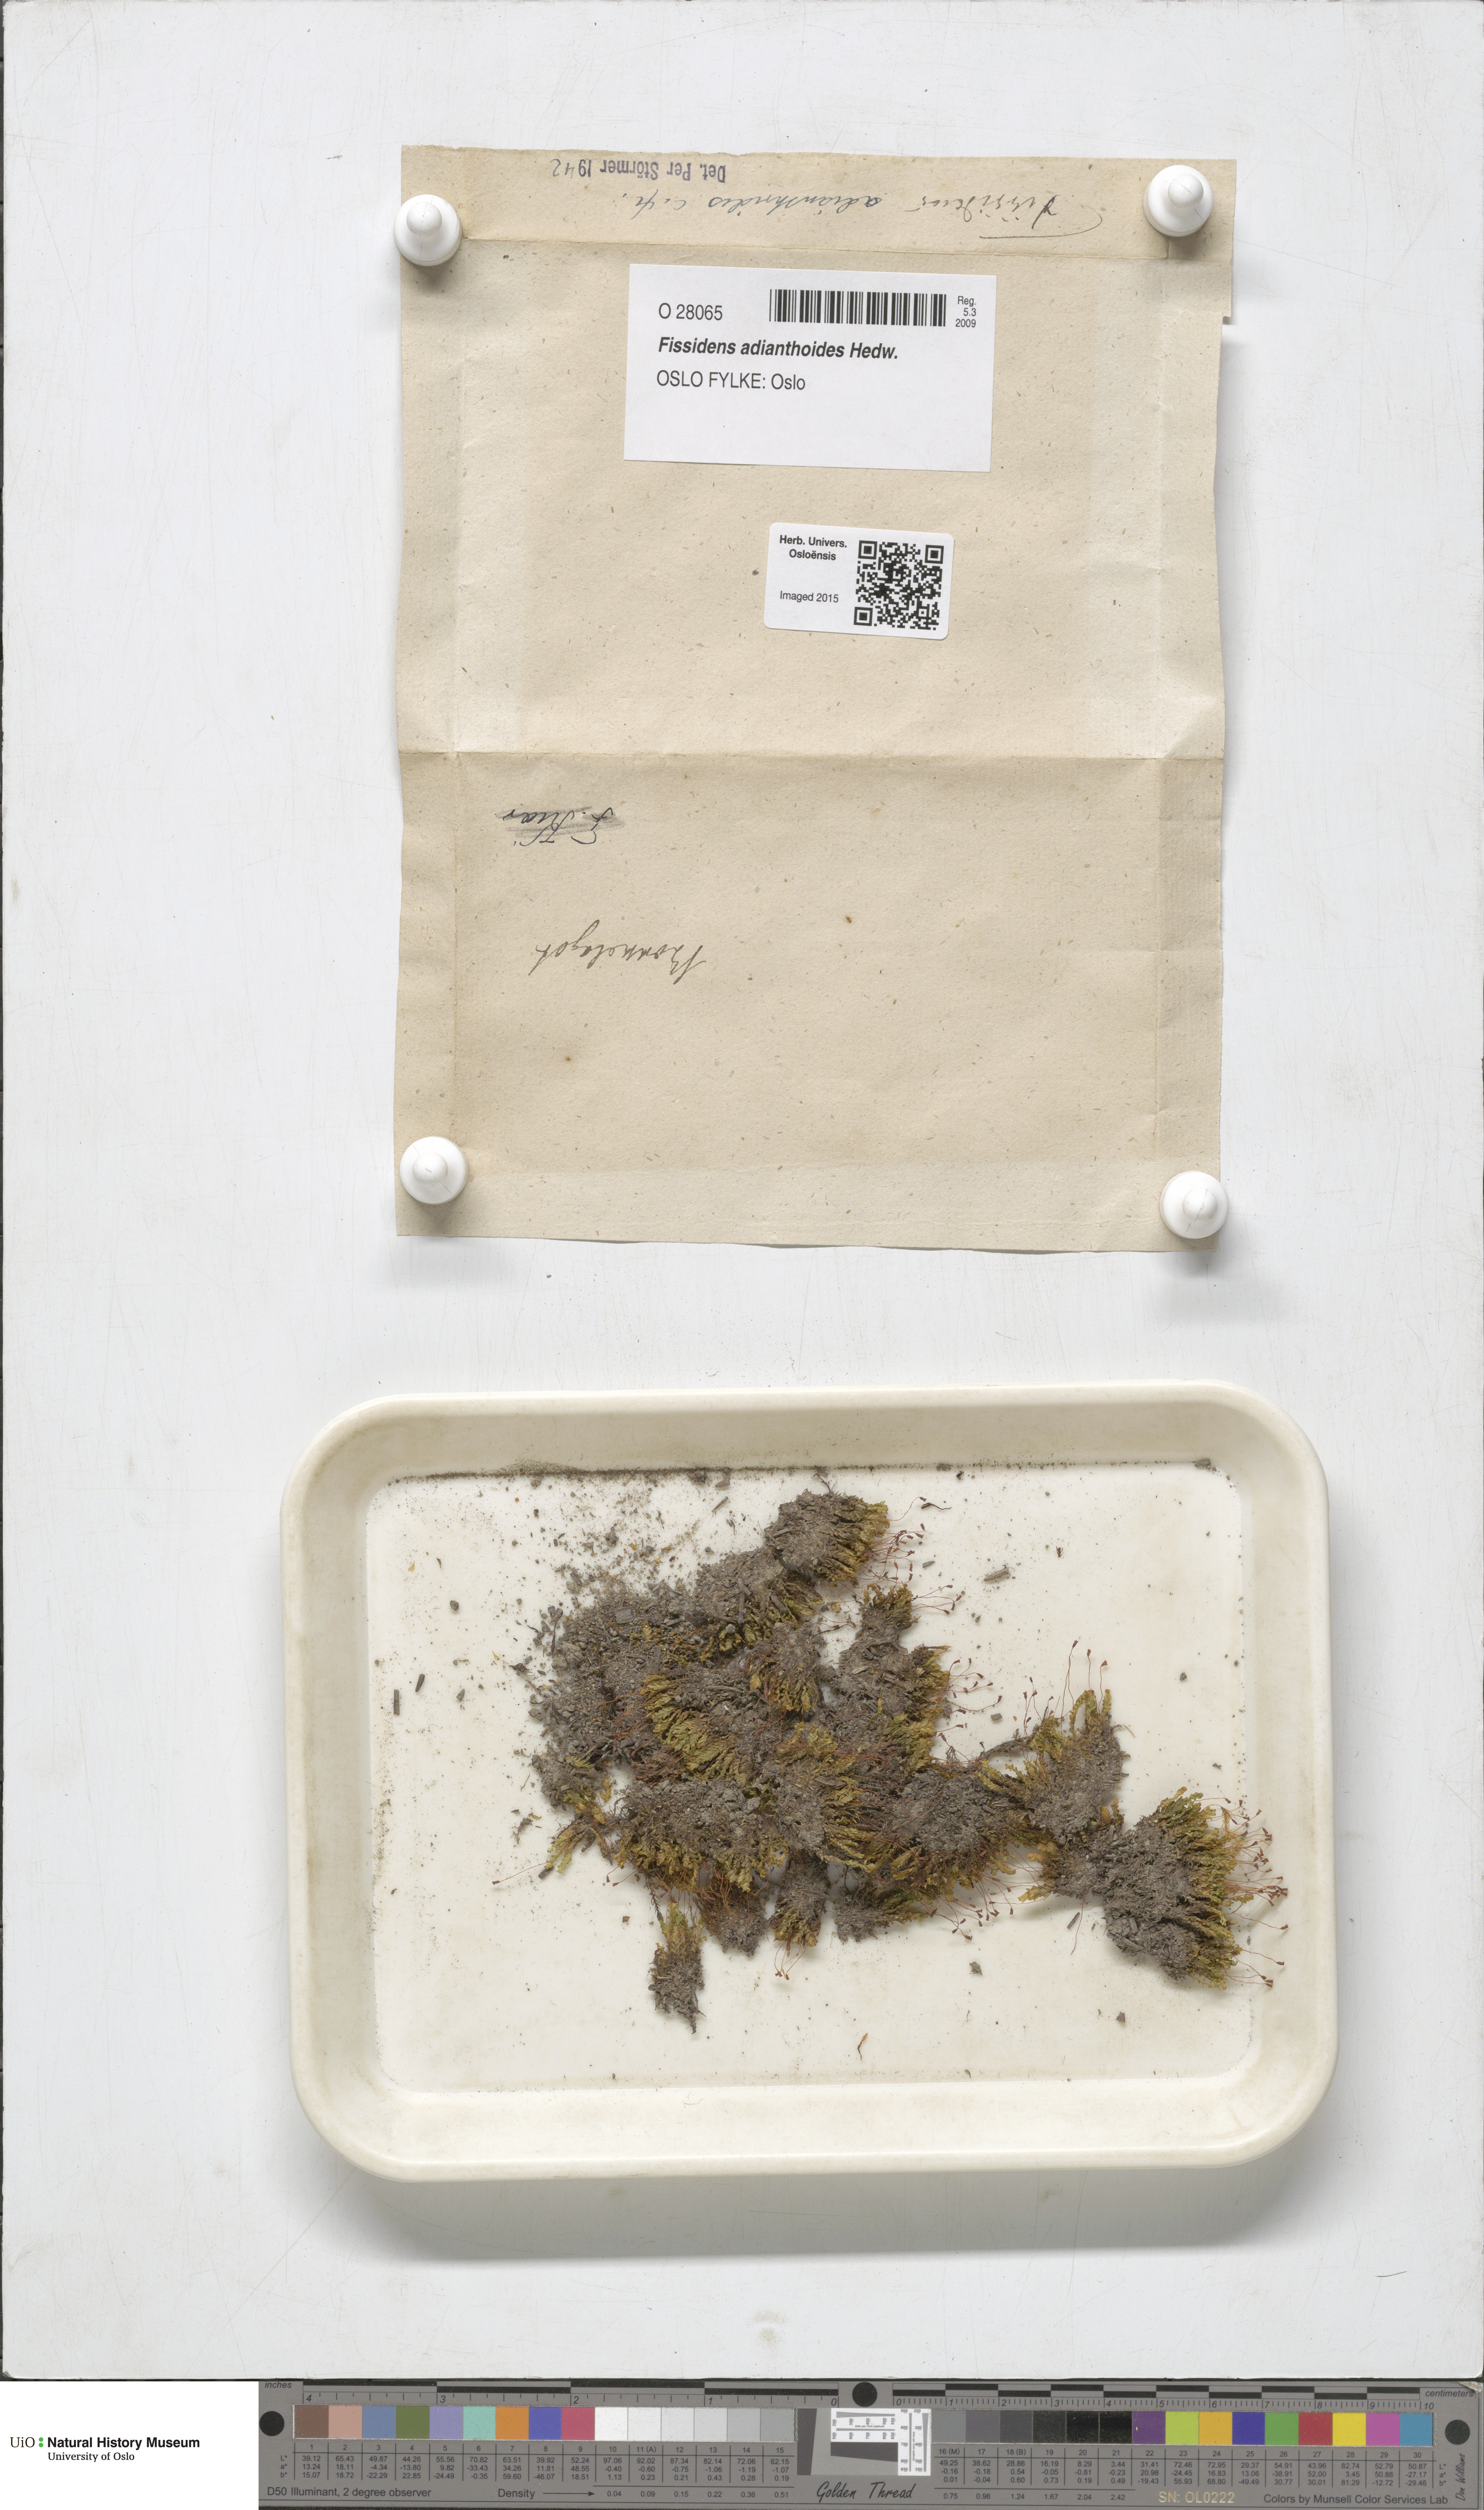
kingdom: Plantae
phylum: Bryophyta
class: Bryopsida
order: Dicranales
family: Fissidentaceae
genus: Fissidens
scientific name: Fissidens adianthoides
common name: Maidenhair pocket moss
